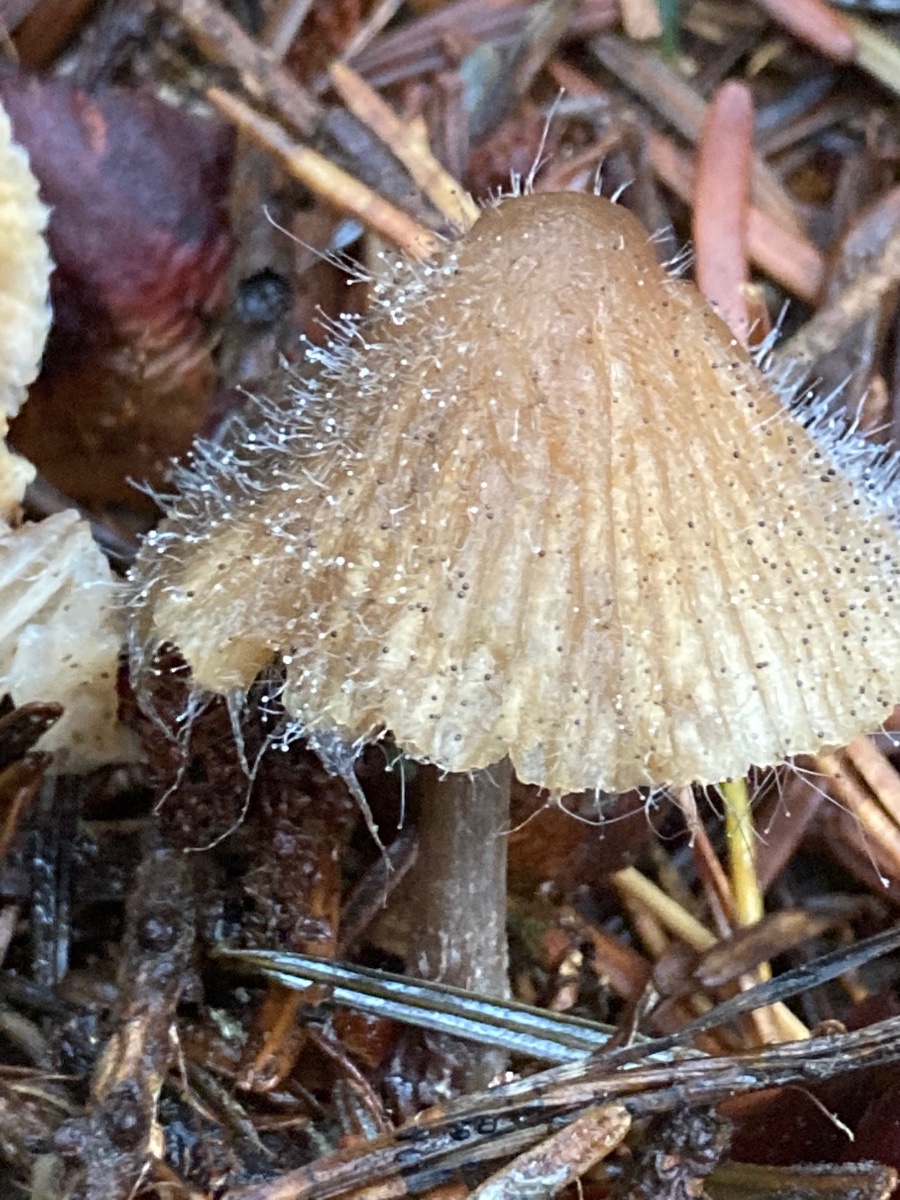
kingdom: Fungi
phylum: Mucoromycota
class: Mucoromycetes
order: Mucorales
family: Phycomycetaceae
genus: Spinellus
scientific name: Spinellus fusiger
